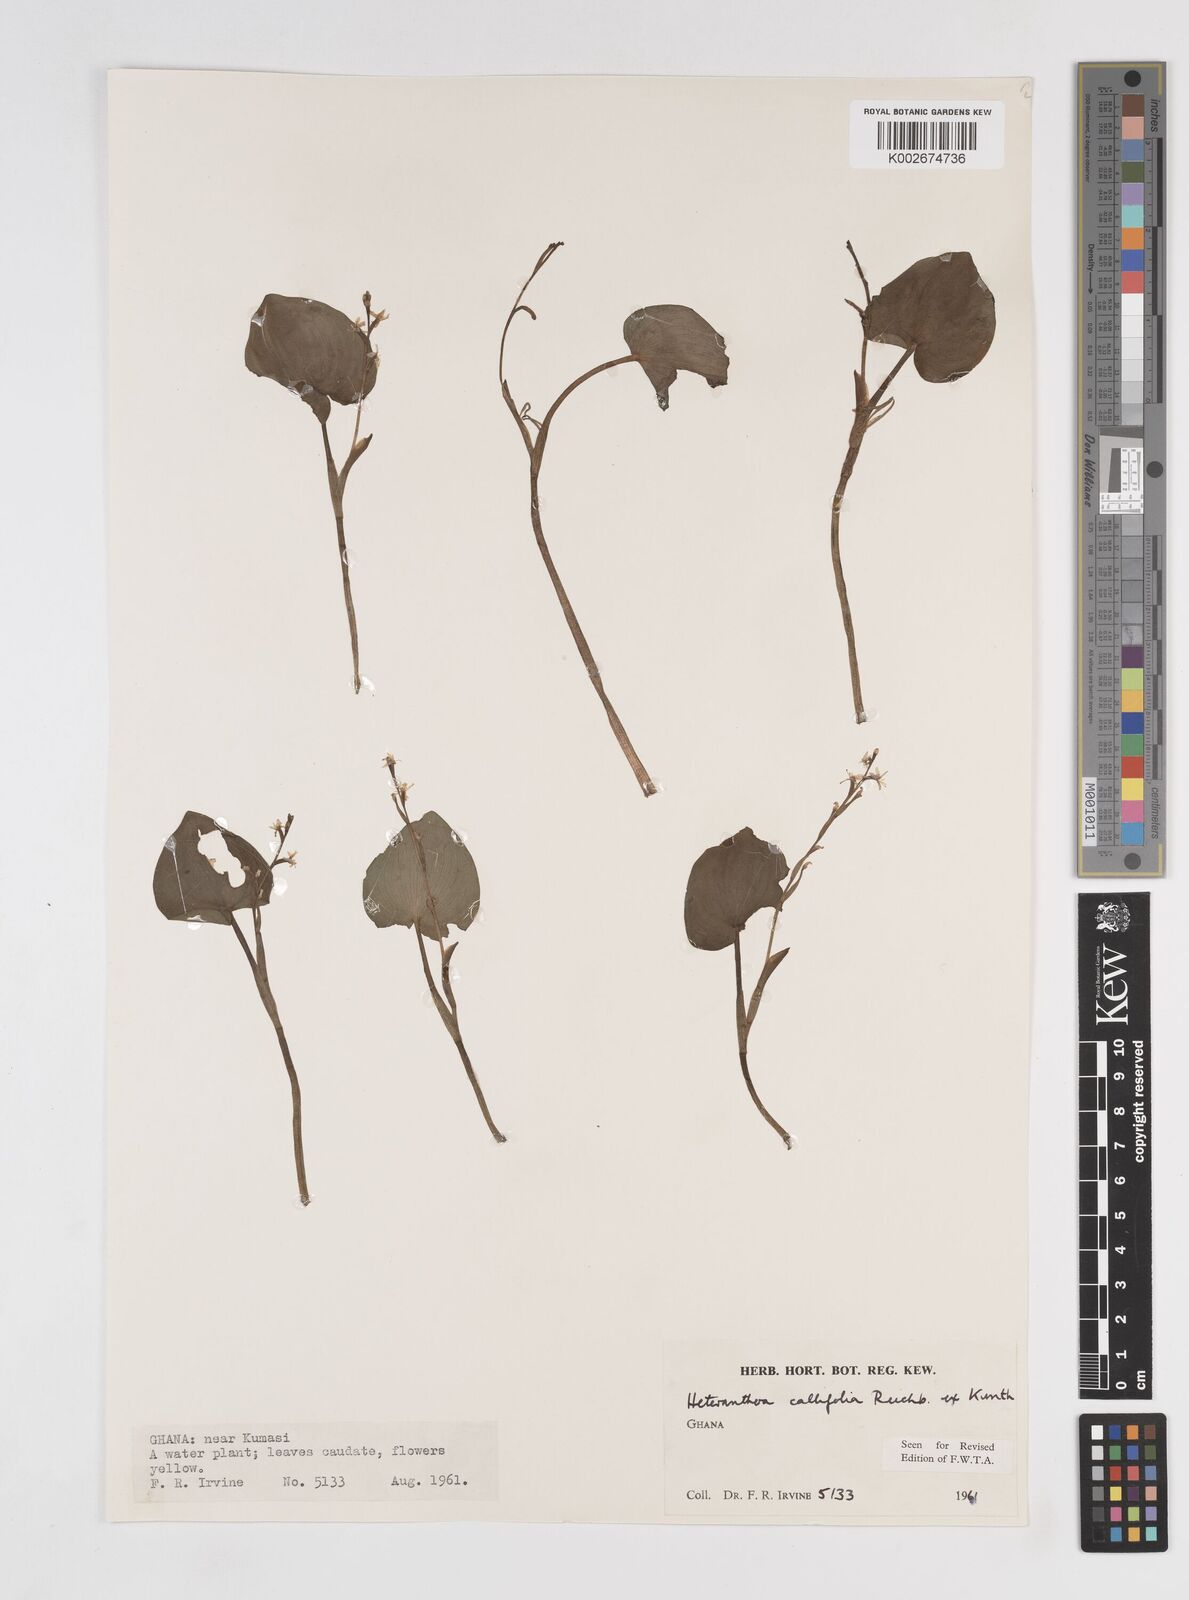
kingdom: Plantae
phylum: Tracheophyta
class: Liliopsida
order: Commelinales
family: Pontederiaceae
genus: Heteranthera
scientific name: Heteranthera callifolia
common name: Mud plantain
